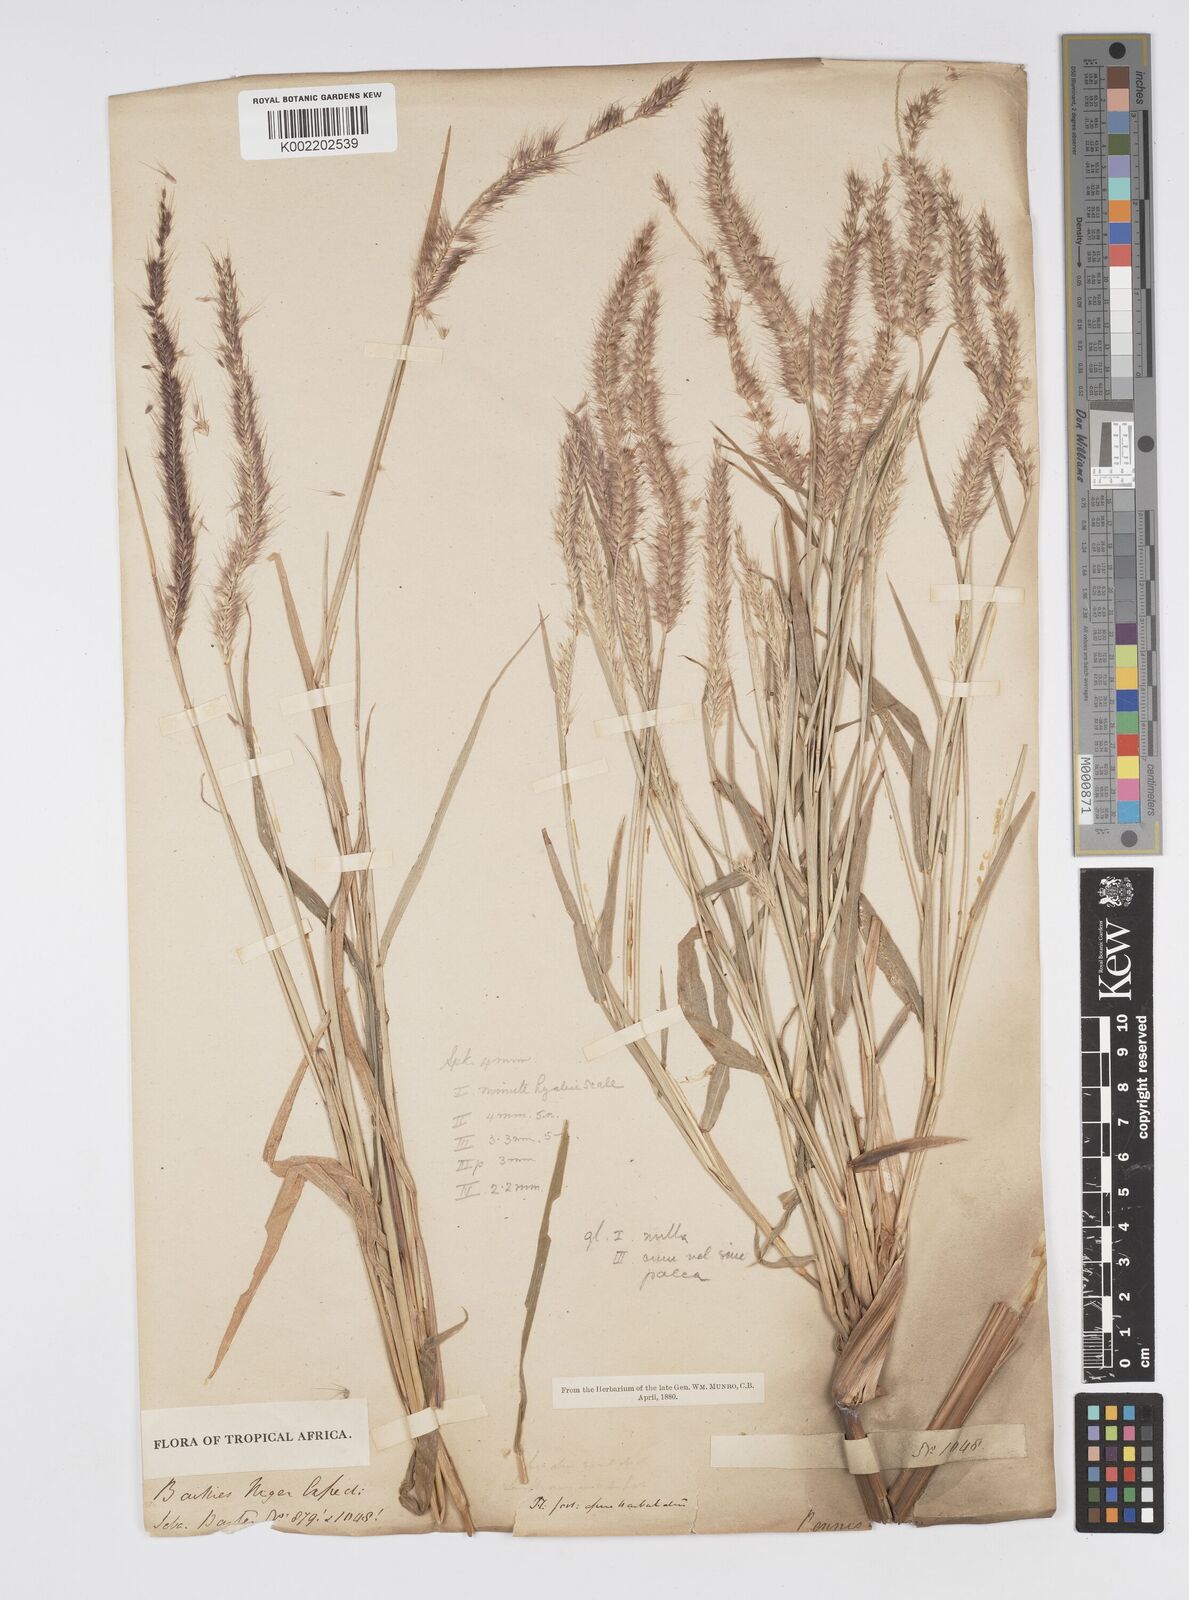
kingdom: Plantae
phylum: Tracheophyta
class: Liliopsida
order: Poales
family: Poaceae
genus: Setaria
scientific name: Setaria parviflora
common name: Knotroot bristle-grass
